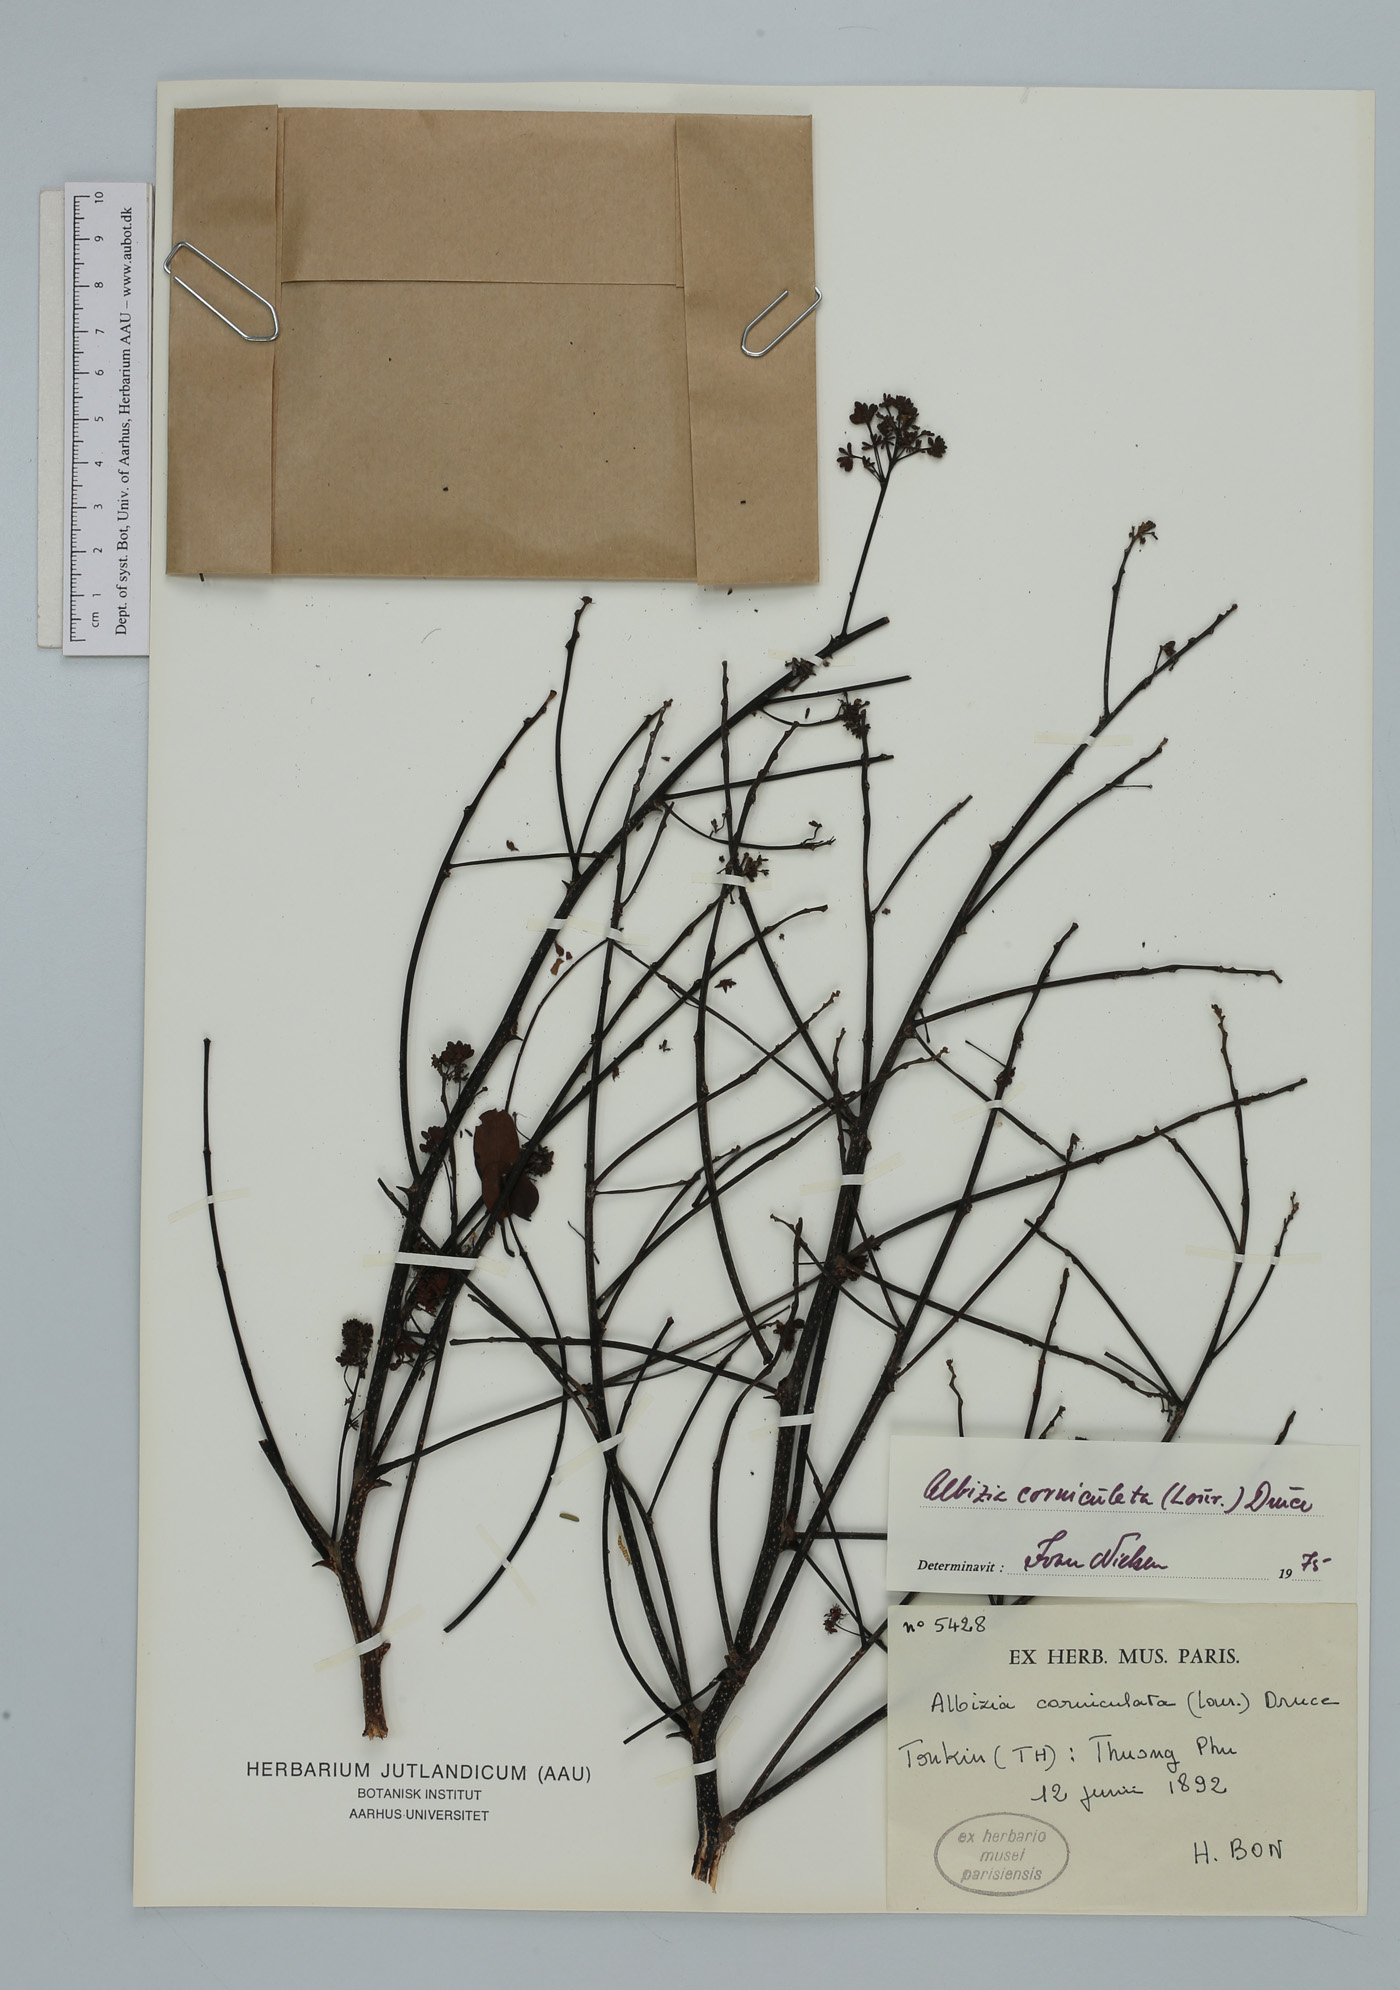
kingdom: Plantae
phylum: Tracheophyta
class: Magnoliopsida
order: Fabales
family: Fabaceae
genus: Albizia
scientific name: Albizia corniculata
